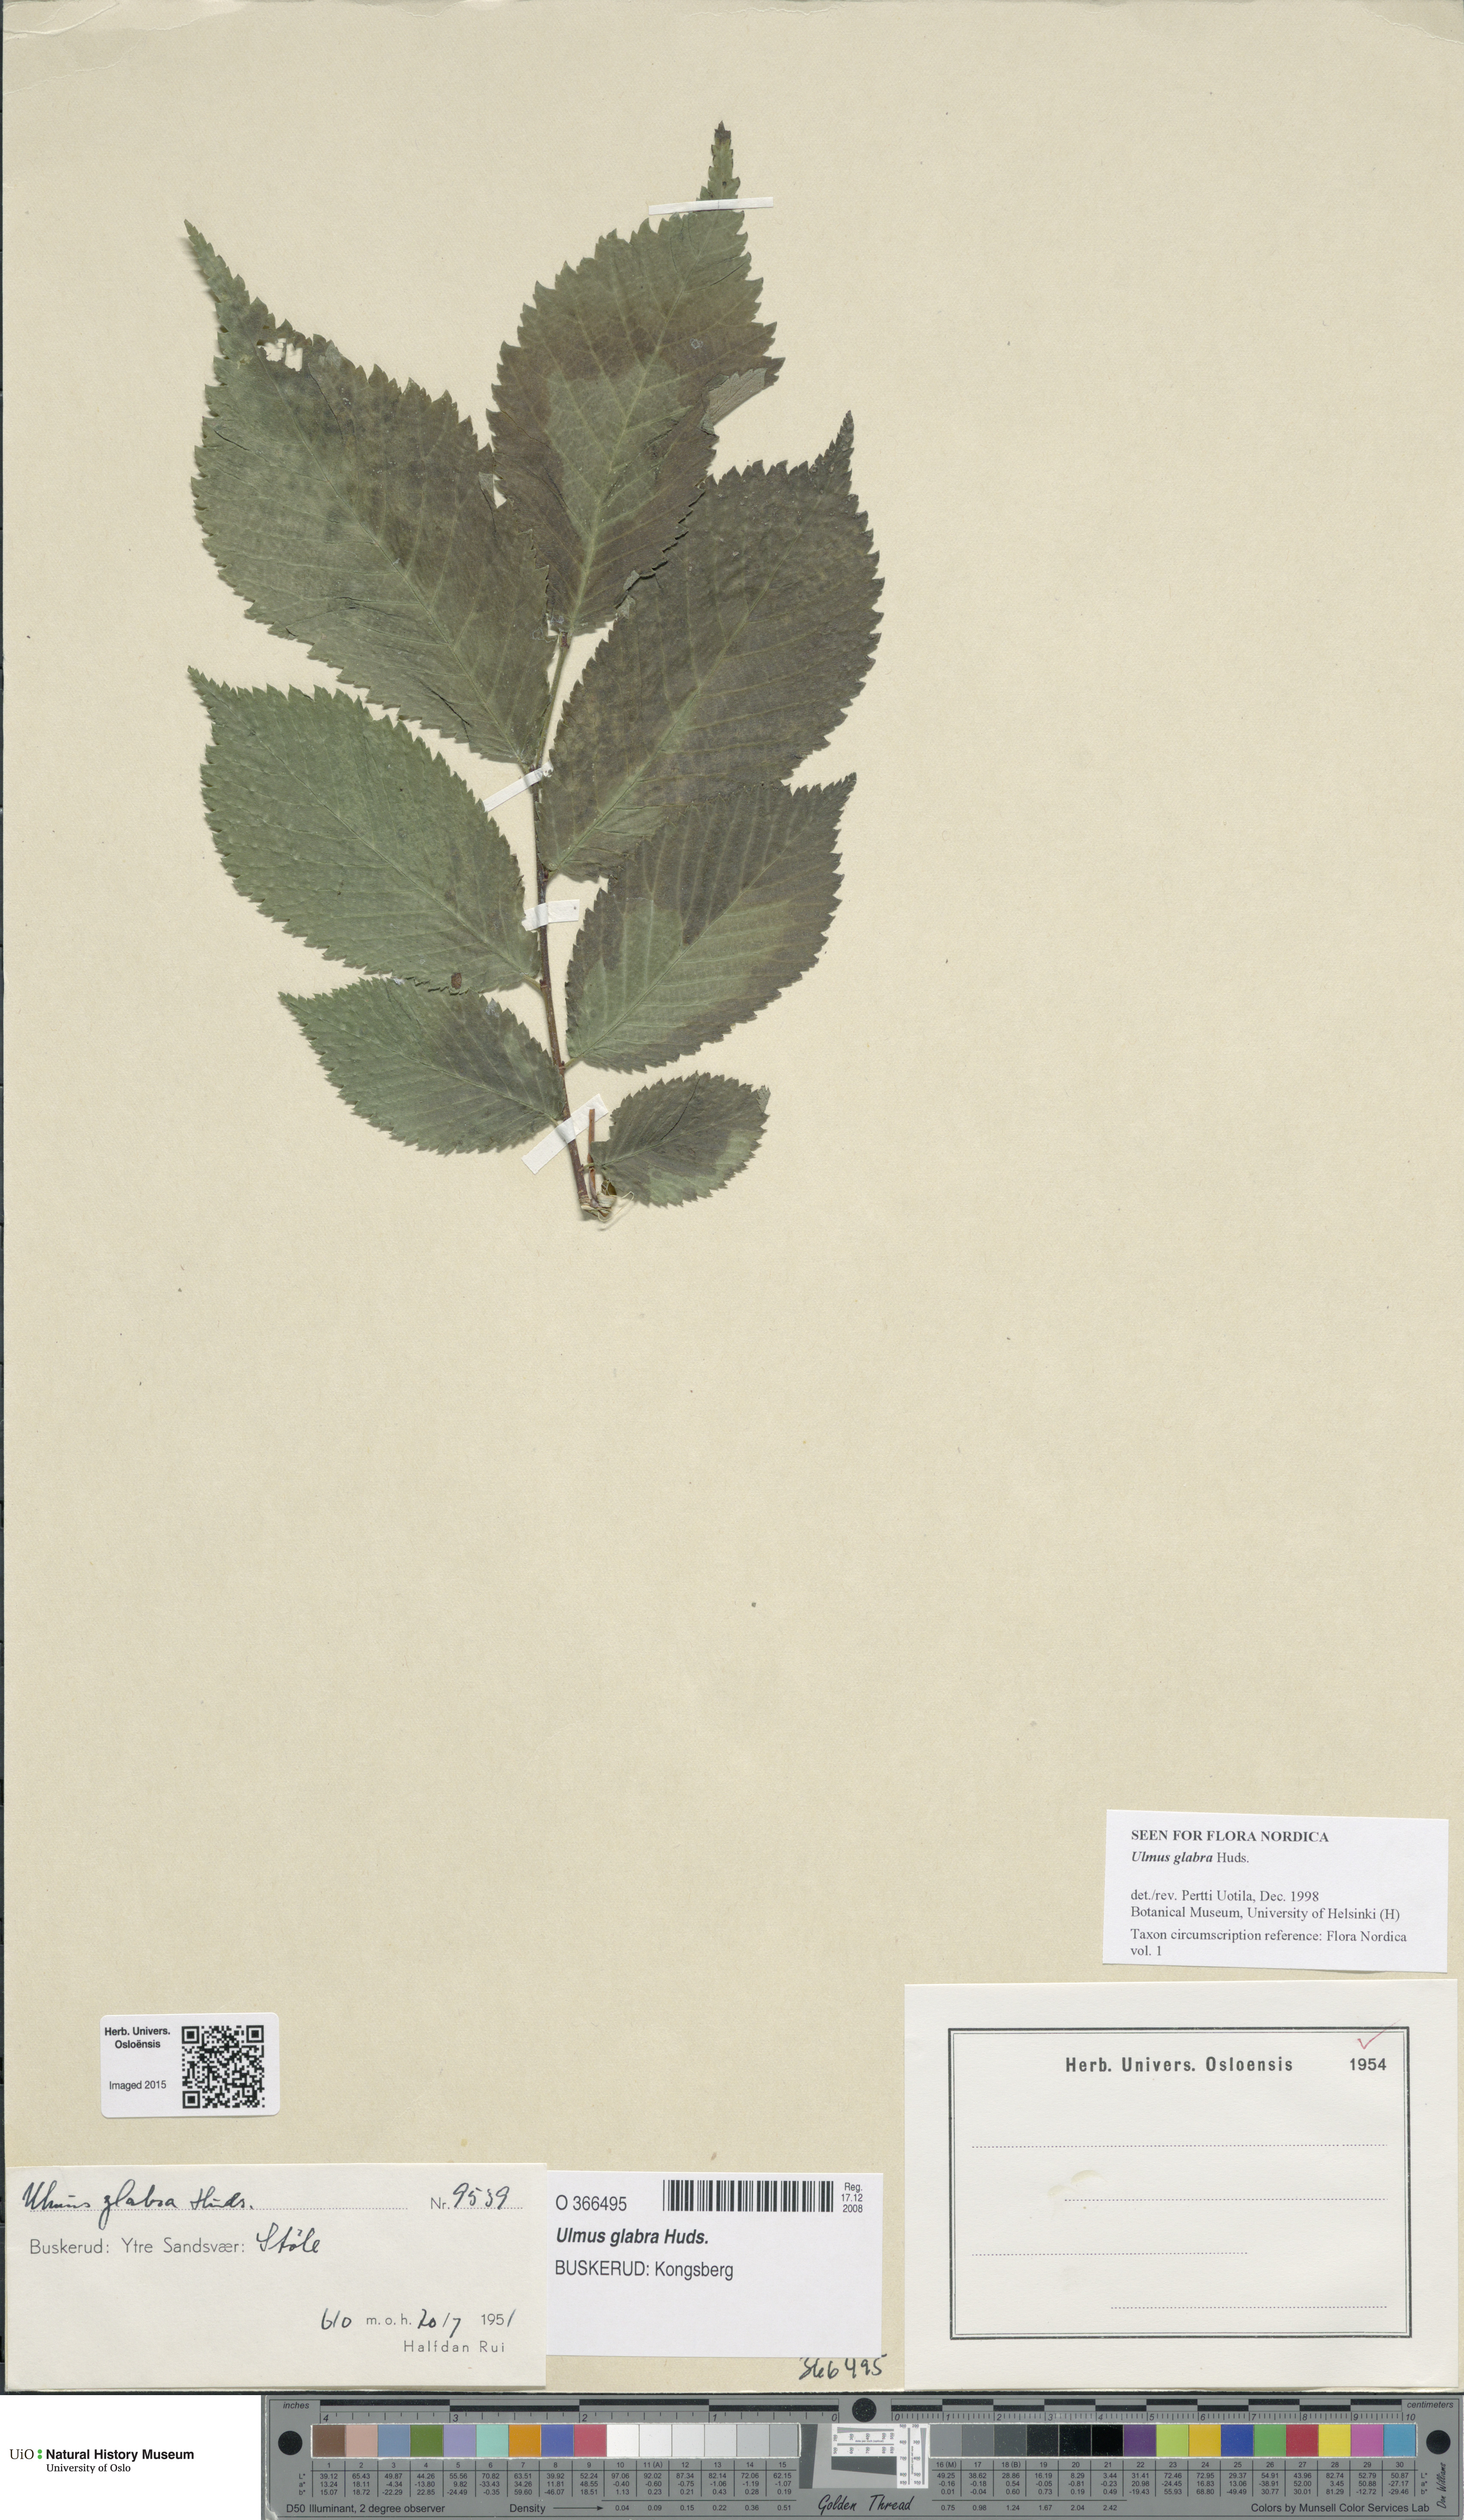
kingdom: Plantae
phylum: Tracheophyta
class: Magnoliopsida
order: Rosales
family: Ulmaceae
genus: Ulmus
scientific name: Ulmus glabra
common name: Wych elm
